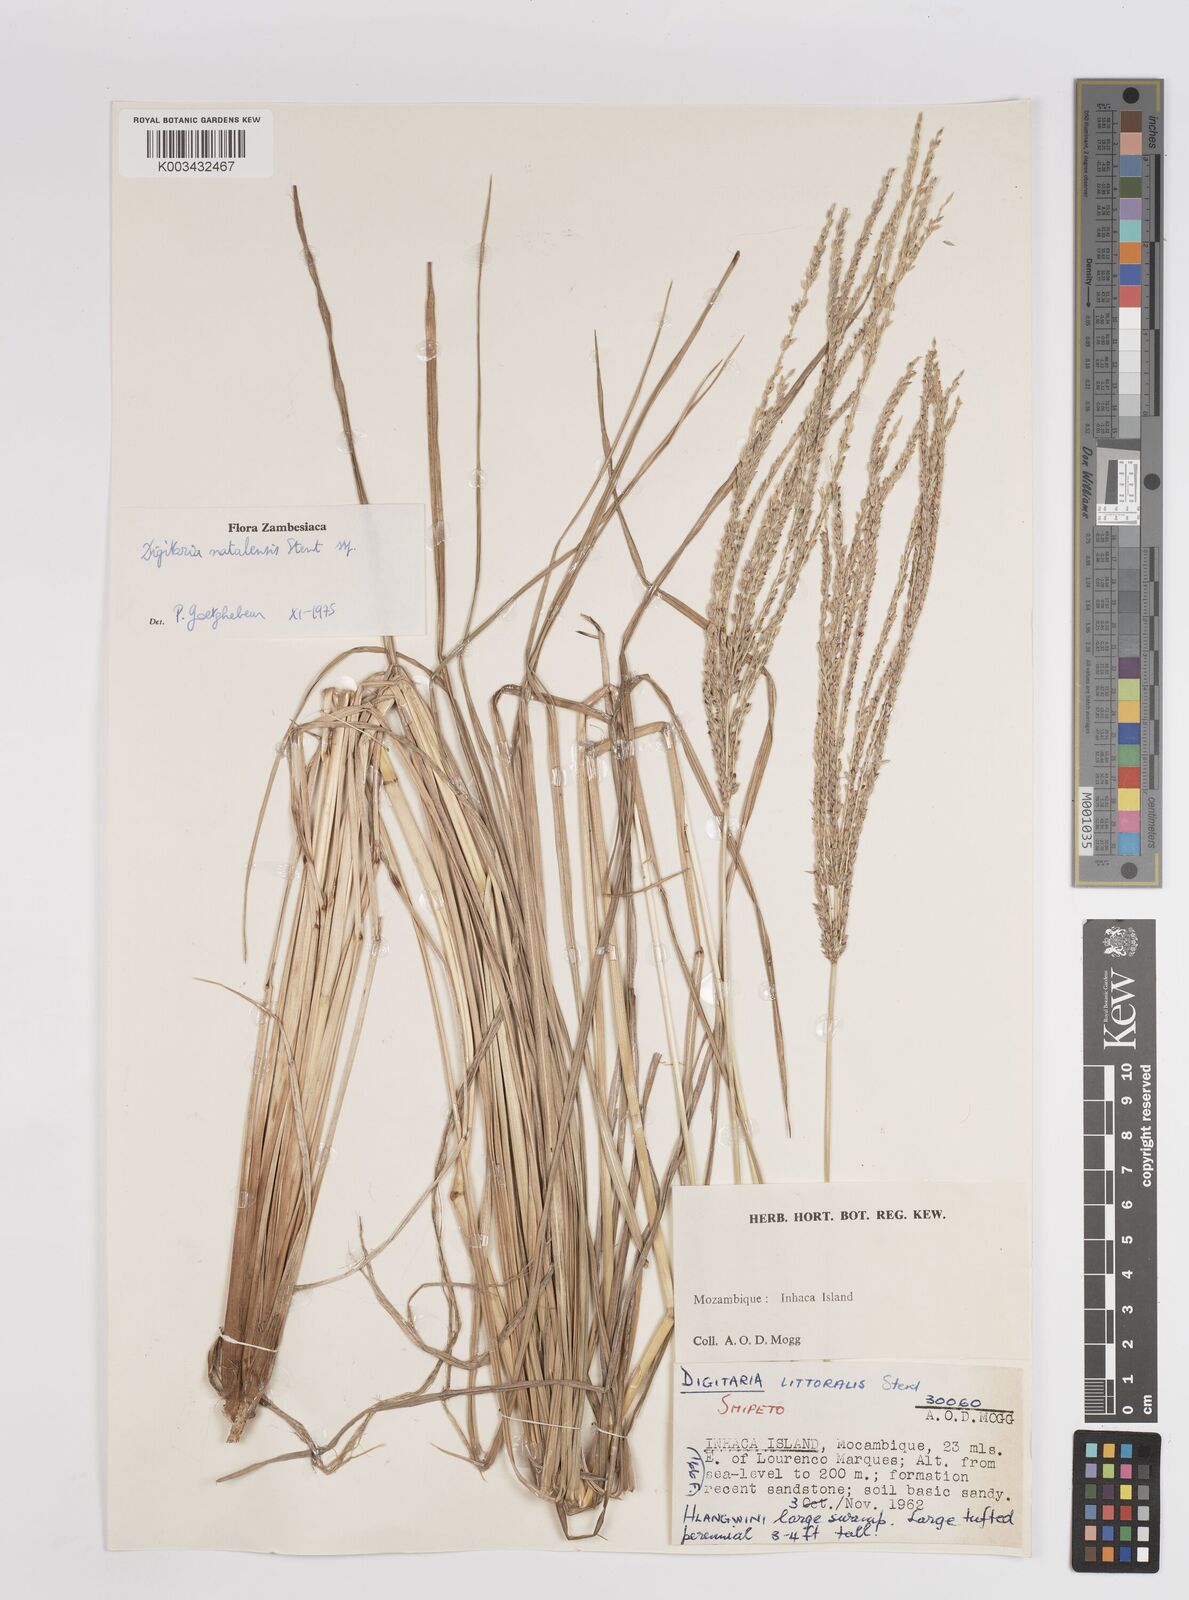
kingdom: Plantae
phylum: Tracheophyta
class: Liliopsida
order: Poales
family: Poaceae
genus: Digitaria
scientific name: Digitaria natalensis
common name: Coast finger grass
